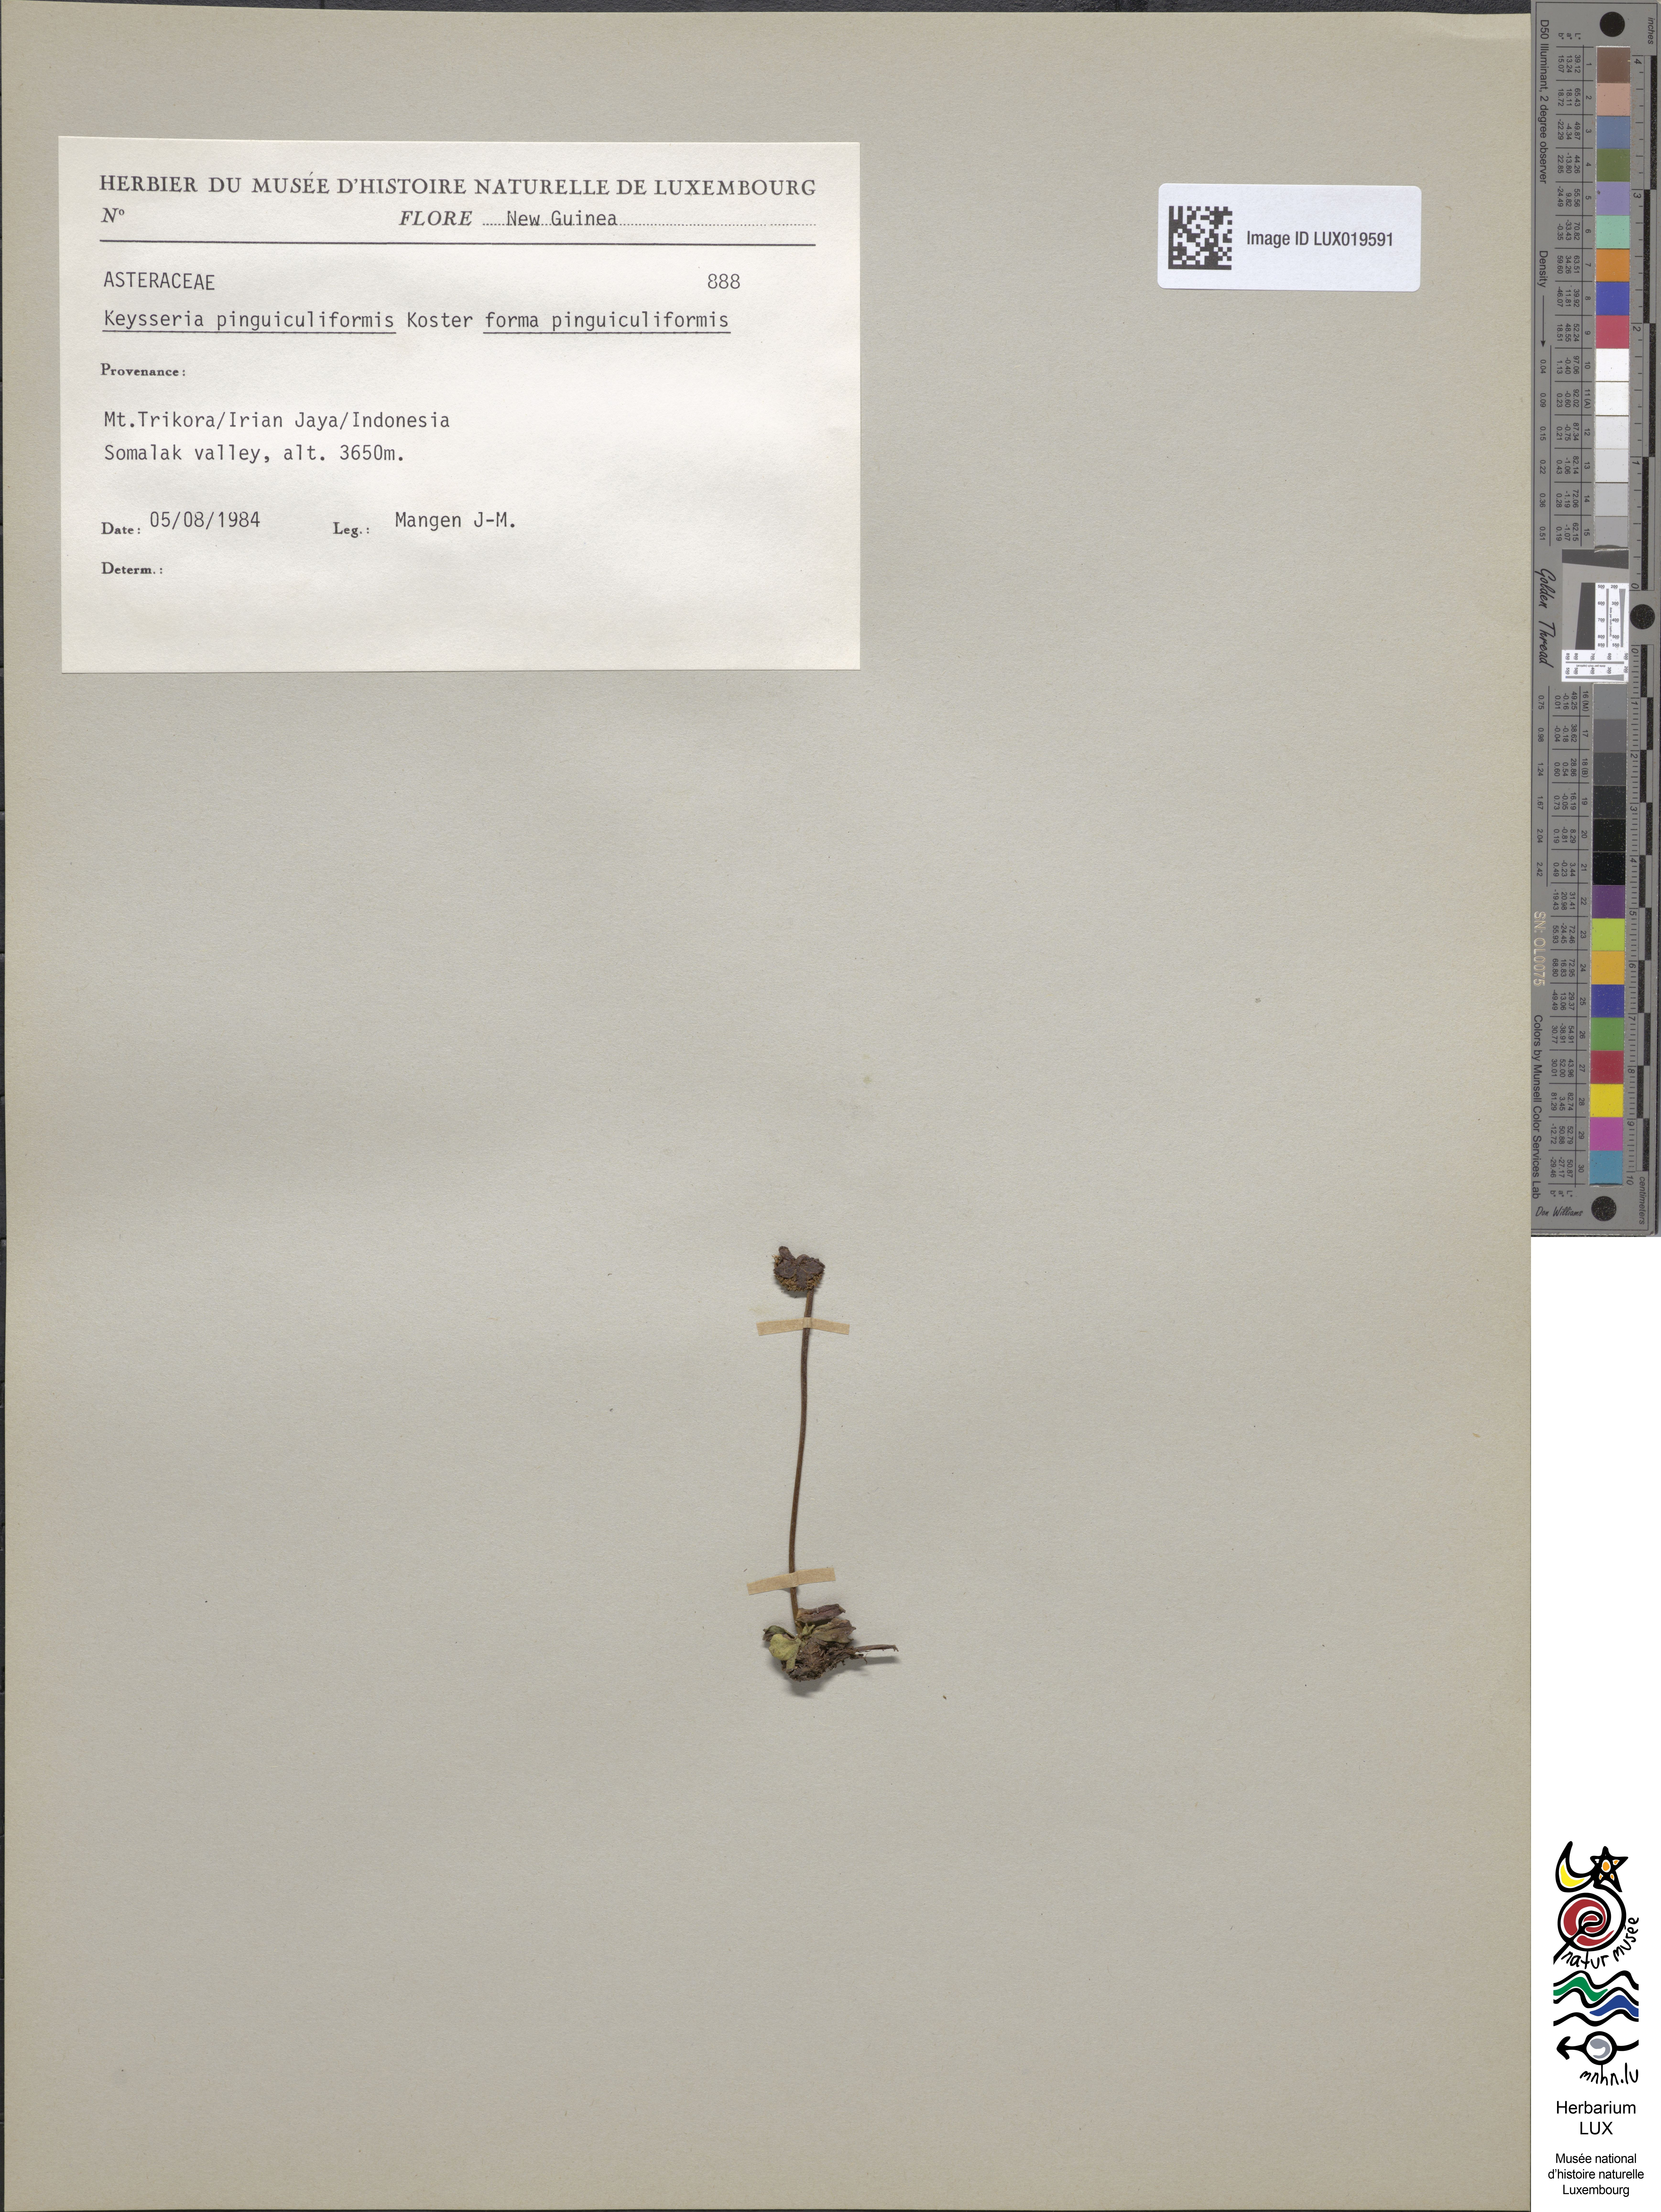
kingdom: Plantae
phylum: Tracheophyta
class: Magnoliopsida
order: Asterales
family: Asteraceae
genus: Keysseria
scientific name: Keysseria pinguiculiformis
